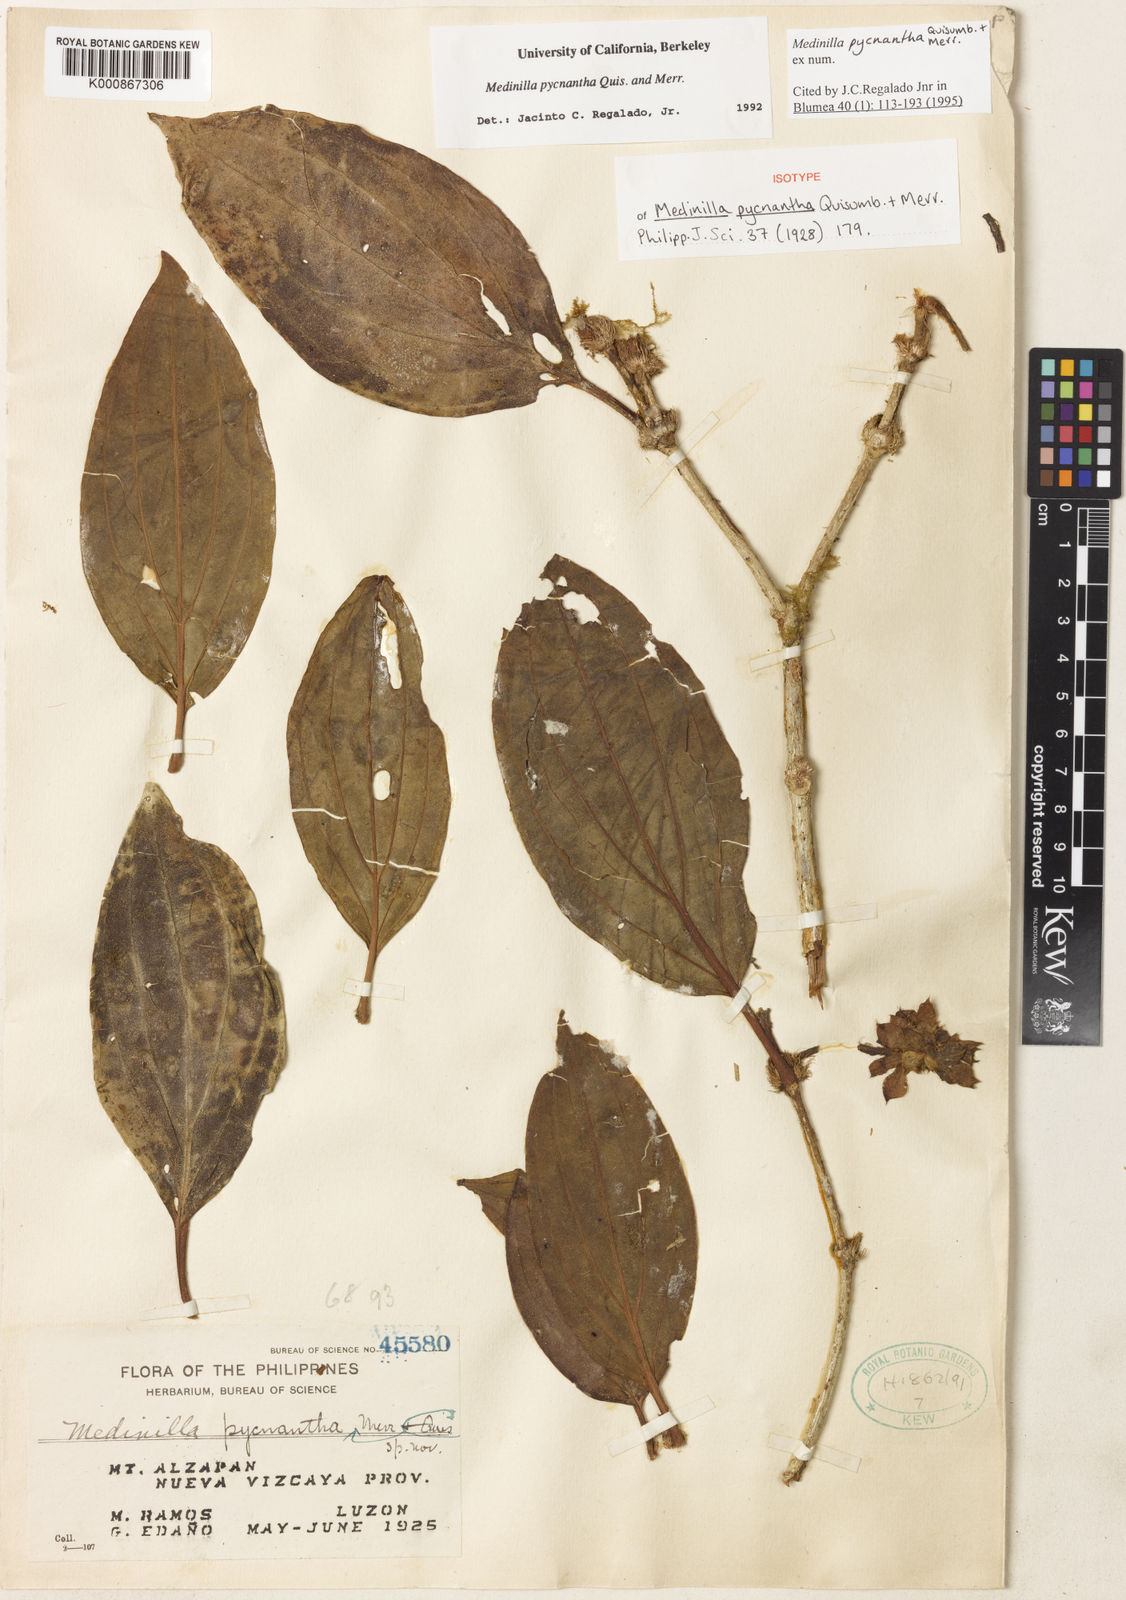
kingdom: Plantae
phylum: Tracheophyta
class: Magnoliopsida
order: Myrtales
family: Melastomataceae
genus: Medinilla
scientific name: Medinilla pycnantha
